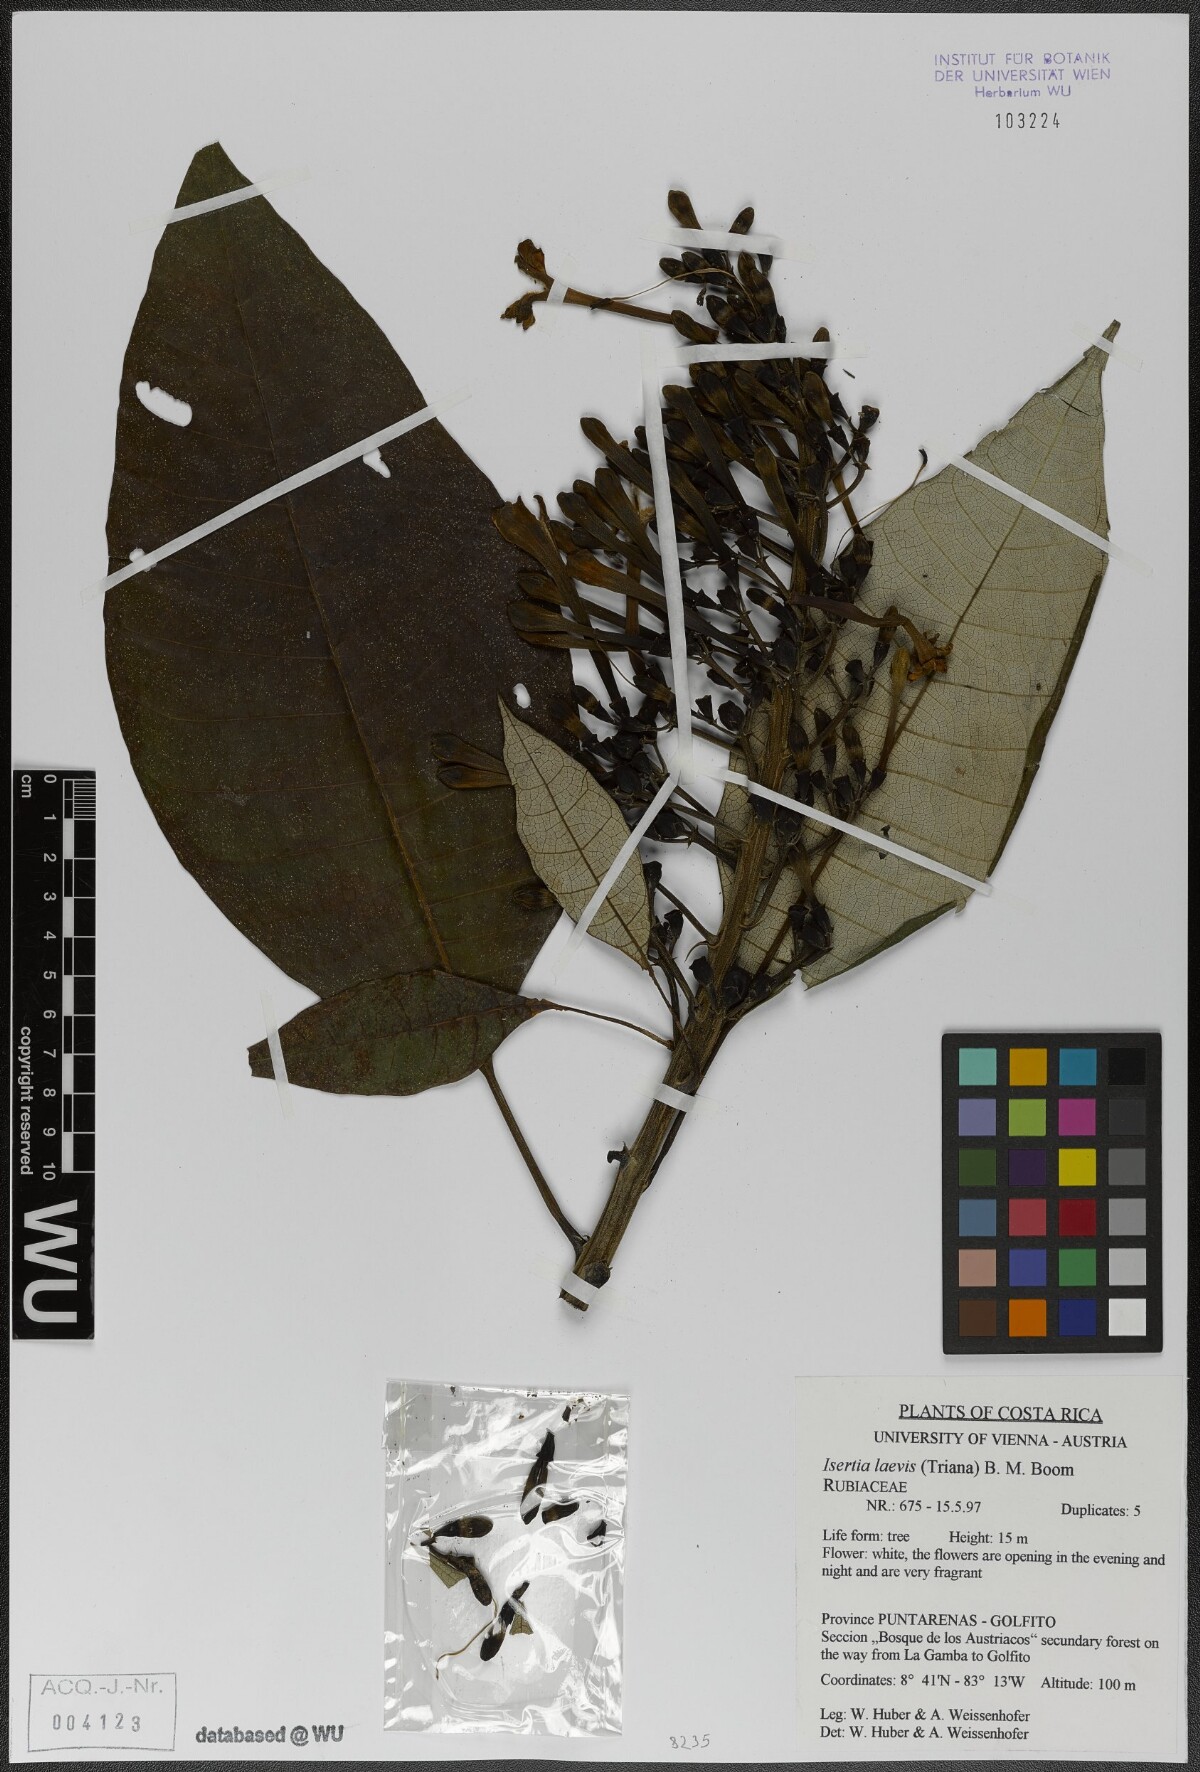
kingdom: Plantae
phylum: Tracheophyta
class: Magnoliopsida
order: Gentianales
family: Rubiaceae
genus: Isertia
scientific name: Isertia laevis
